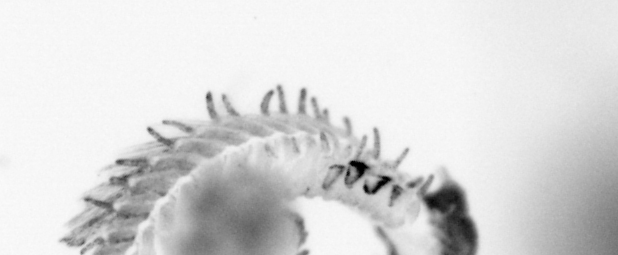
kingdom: Animalia
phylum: Annelida
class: Polychaeta
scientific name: Polychaeta
